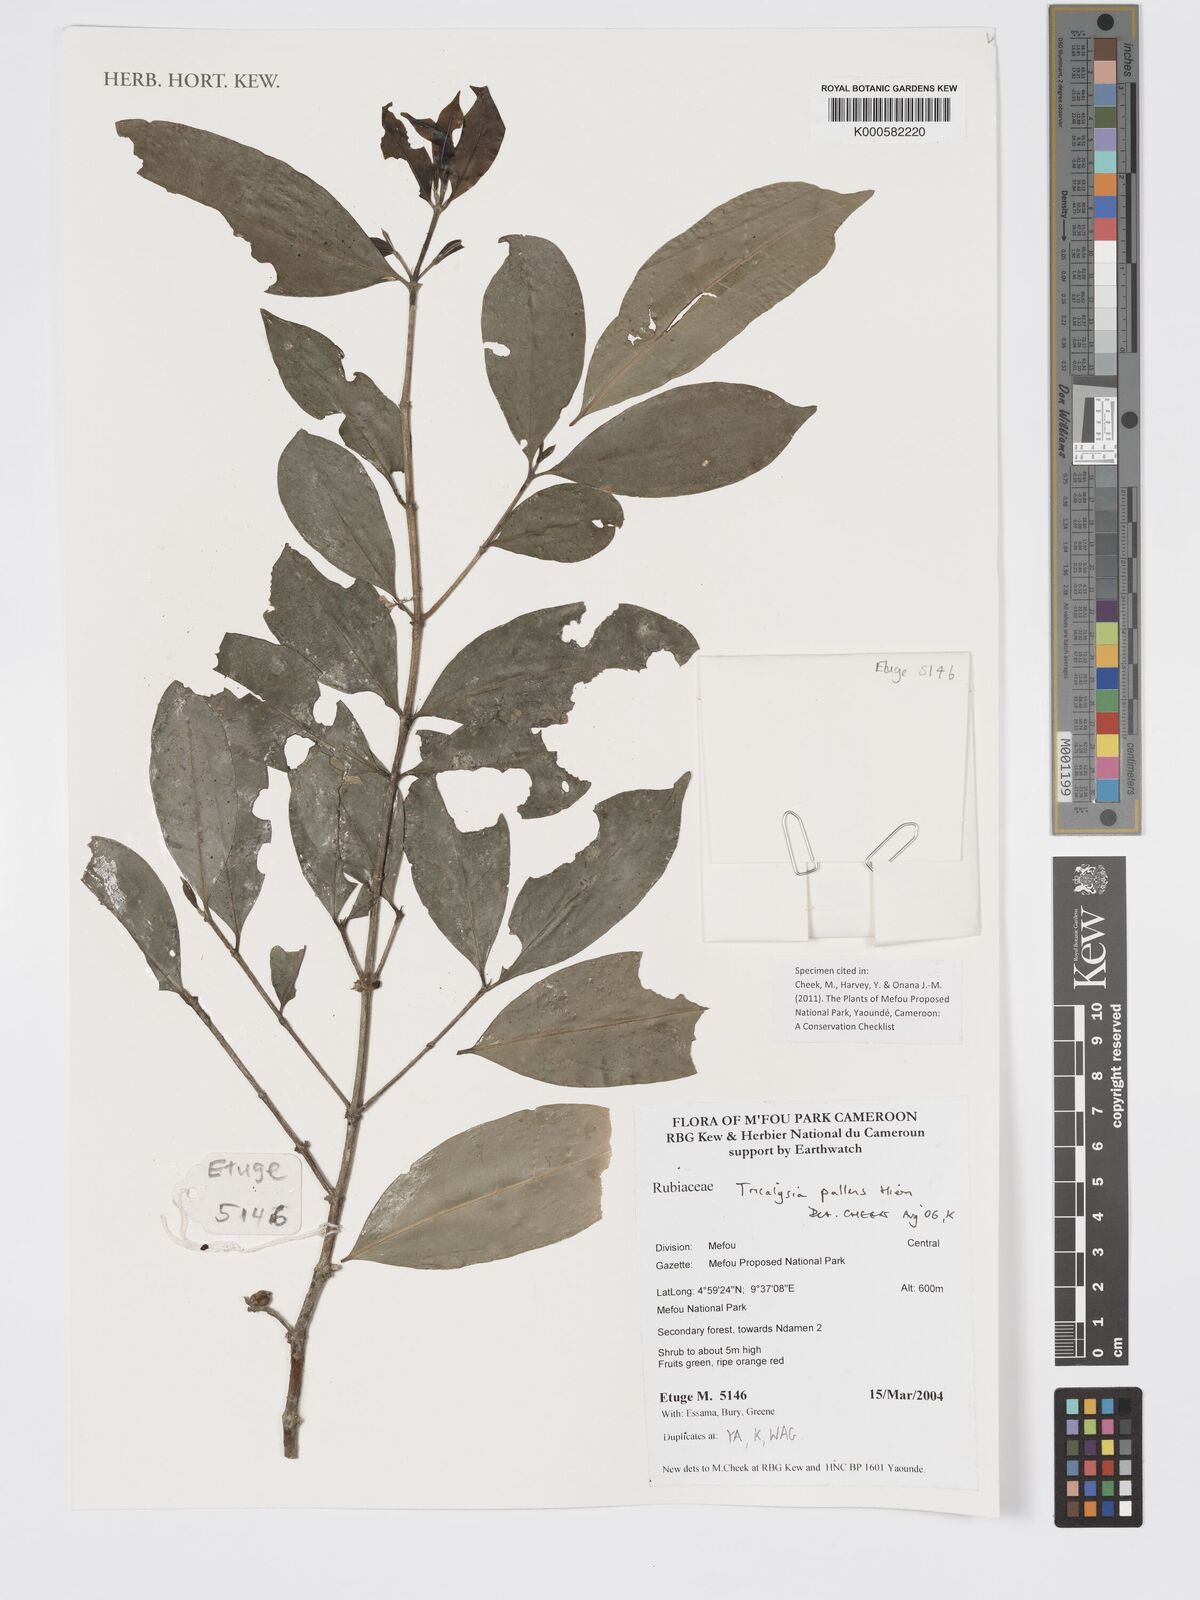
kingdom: Plantae
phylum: Tracheophyta
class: Magnoliopsida
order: Gentianales
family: Rubiaceae
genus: Tricalysia
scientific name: Tricalysia pallens
